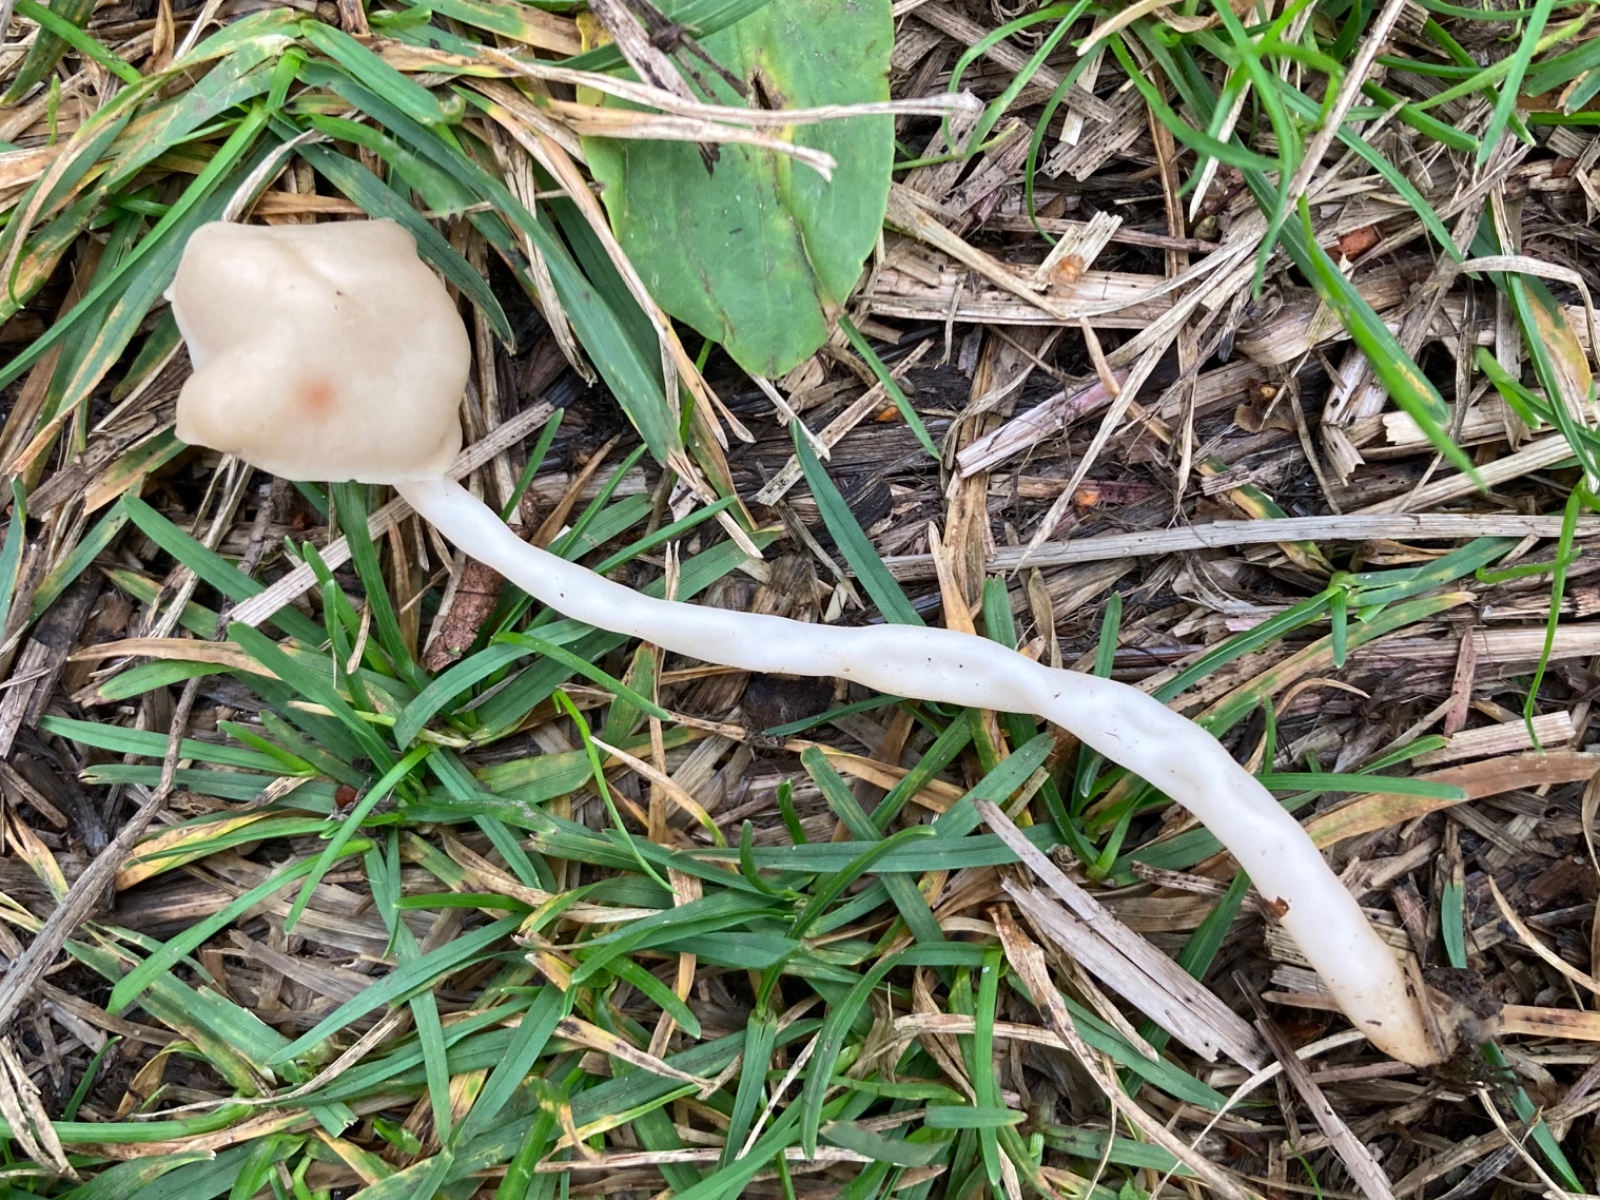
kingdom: Fungi
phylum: Ascomycota
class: Pezizomycetes
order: Pezizales
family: Helvellaceae
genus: Helvella
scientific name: Helvella elastica
